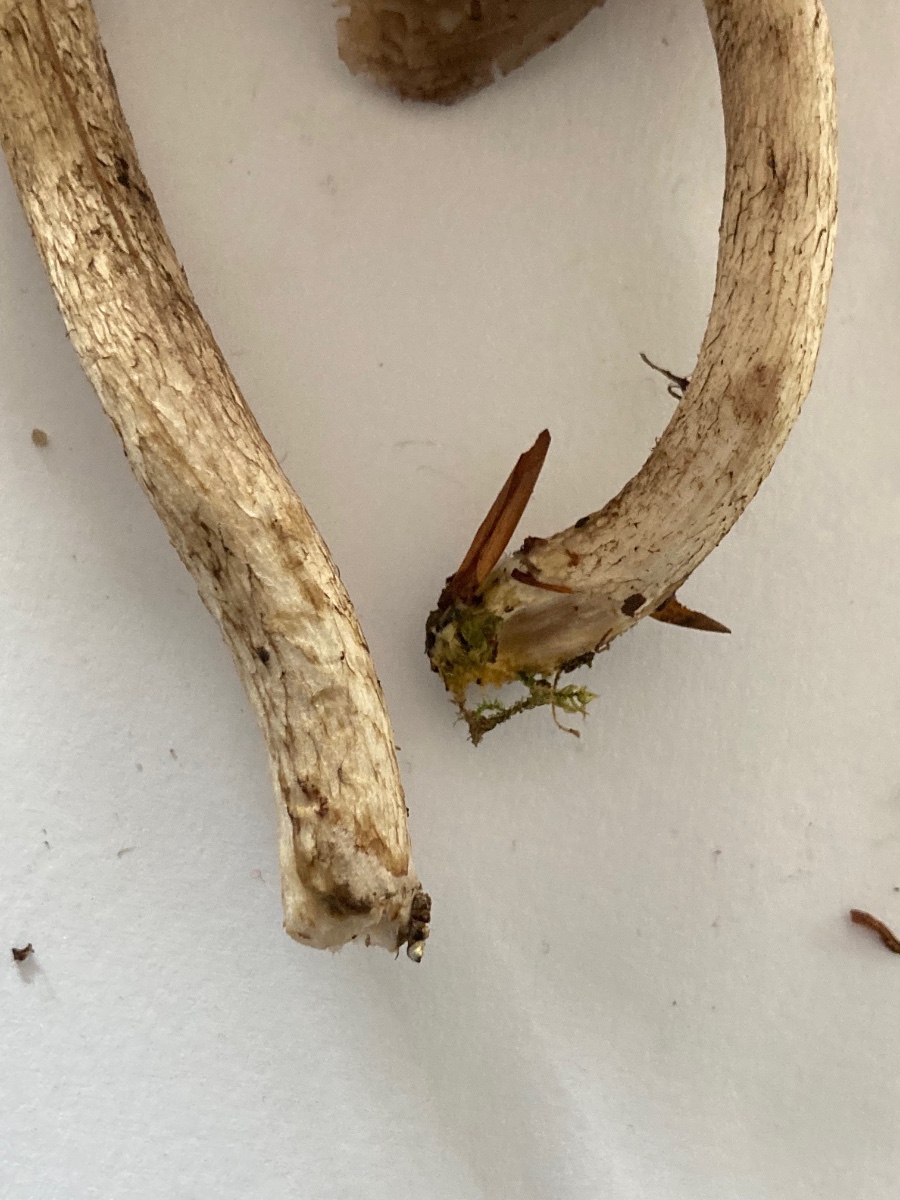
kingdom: Fungi
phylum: Basidiomycota
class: Agaricomycetes
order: Agaricales
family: Psathyrellaceae
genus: Psathyrella
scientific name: Psathyrella cotonea
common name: skællet mørkhat
